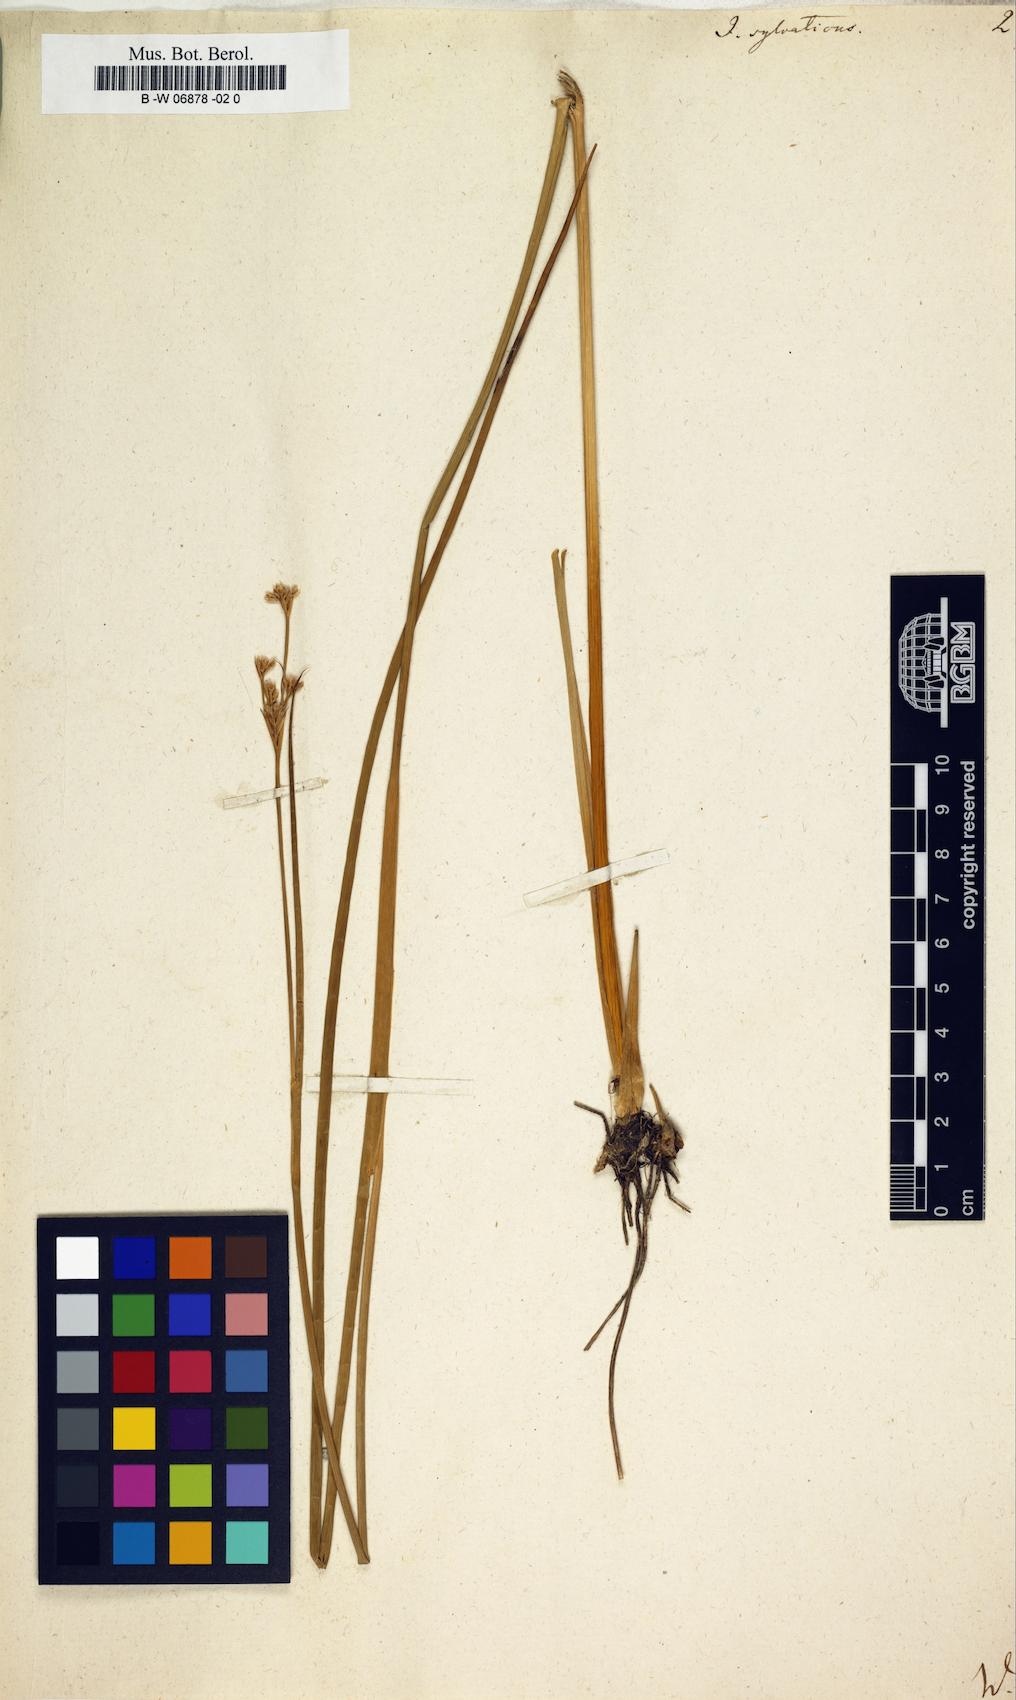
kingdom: Plantae
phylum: Tracheophyta
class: Liliopsida
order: Poales
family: Juncaceae
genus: Juncus
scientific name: Juncus sylvaticus
